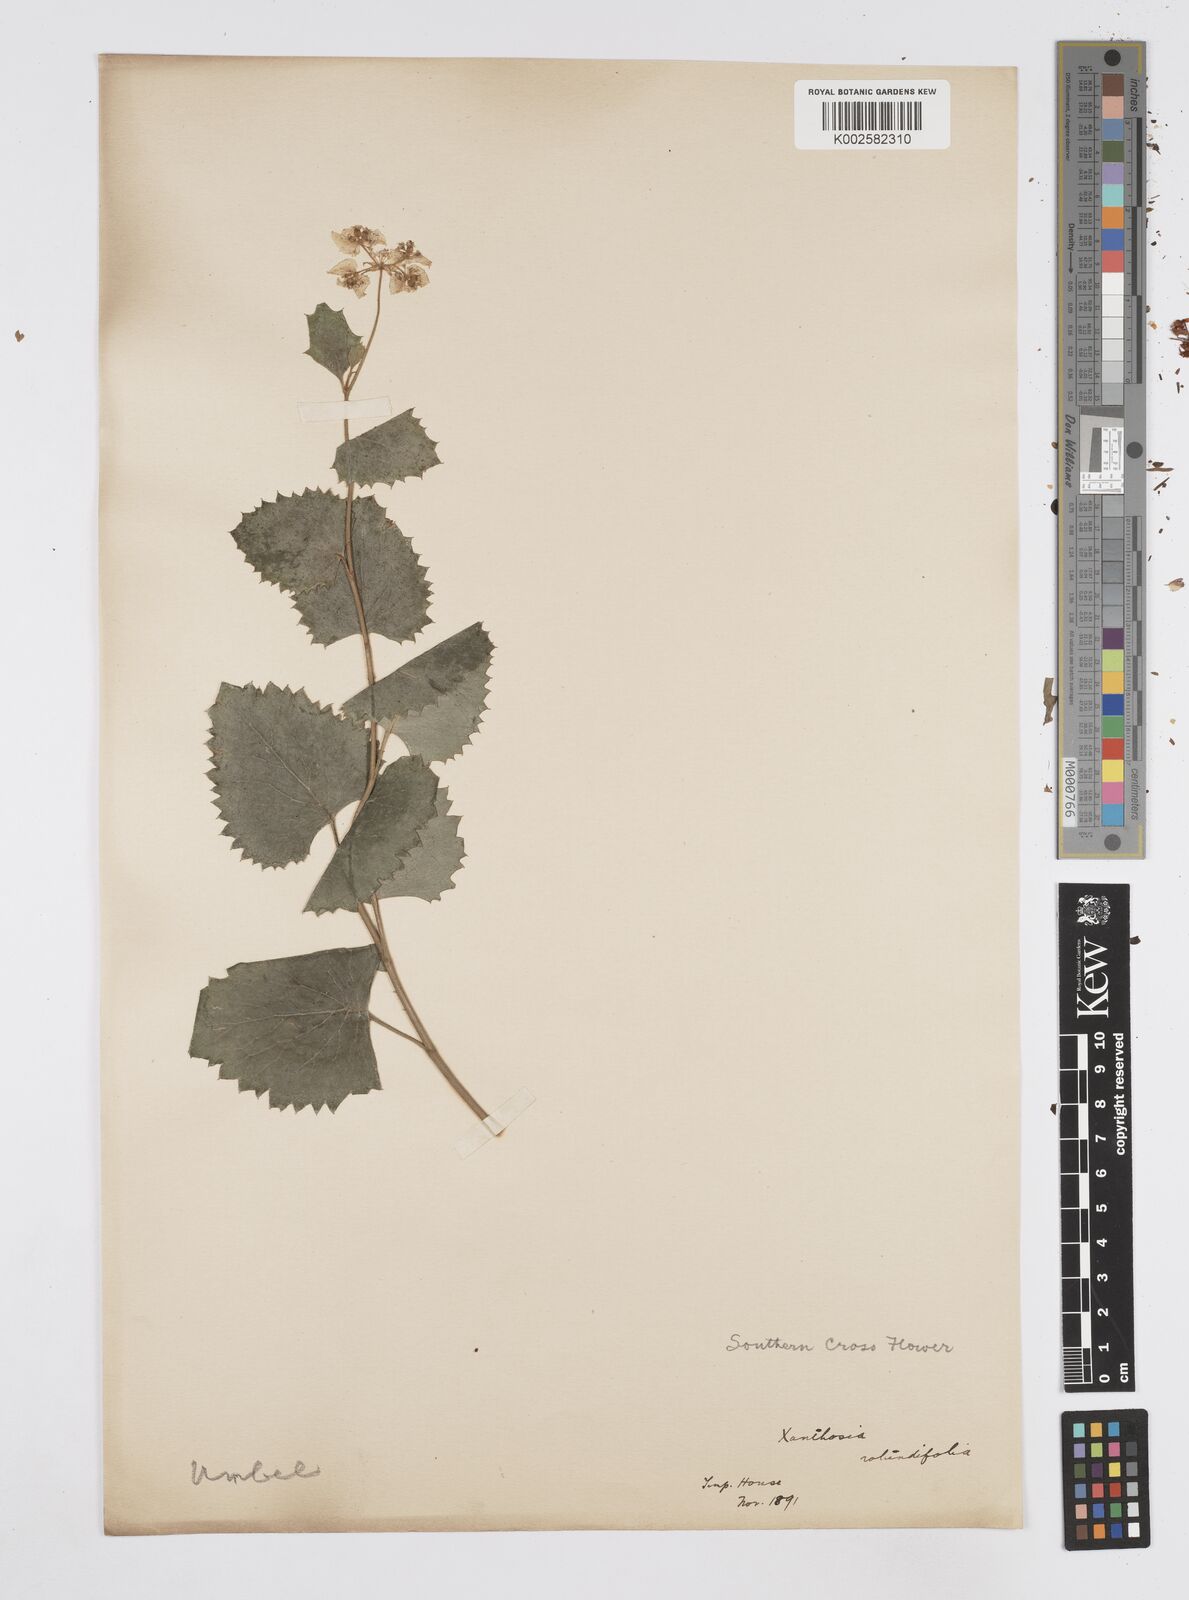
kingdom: Plantae
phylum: Tracheophyta
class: Magnoliopsida
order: Apiales
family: Apiaceae
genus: Xanthosia
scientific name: Xanthosia rotundifolia
